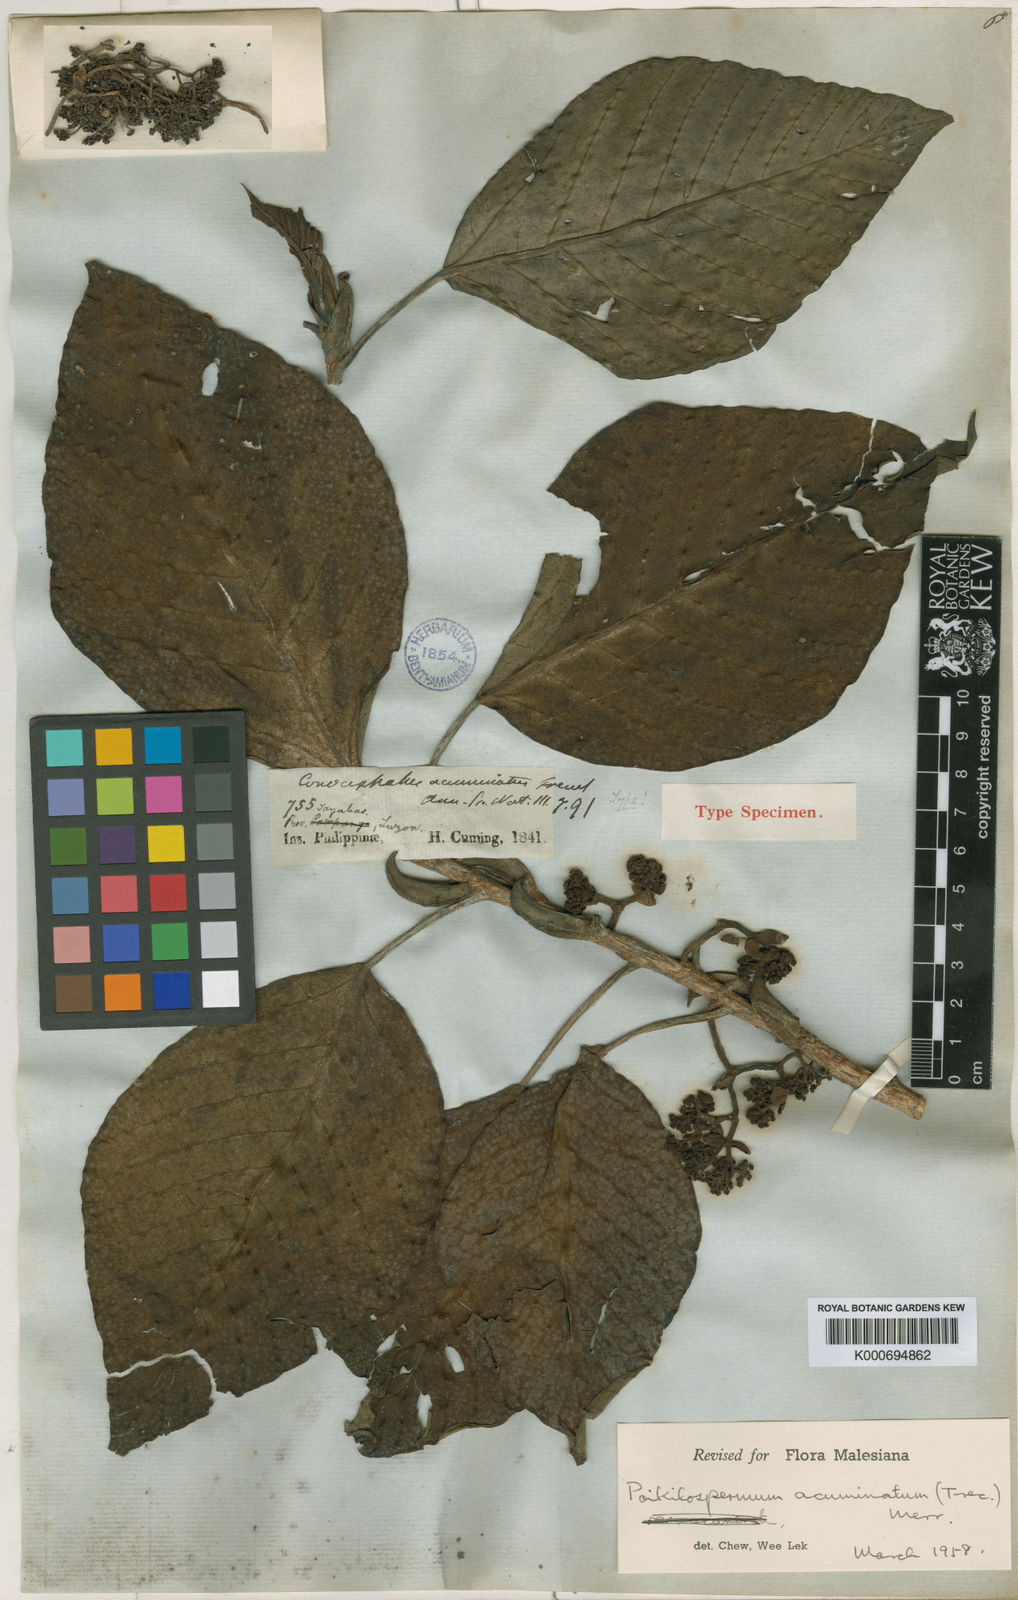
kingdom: Plantae
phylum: Tracheophyta
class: Magnoliopsida
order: Rosales
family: Urticaceae
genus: Poikilospermum
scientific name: Poikilospermum
